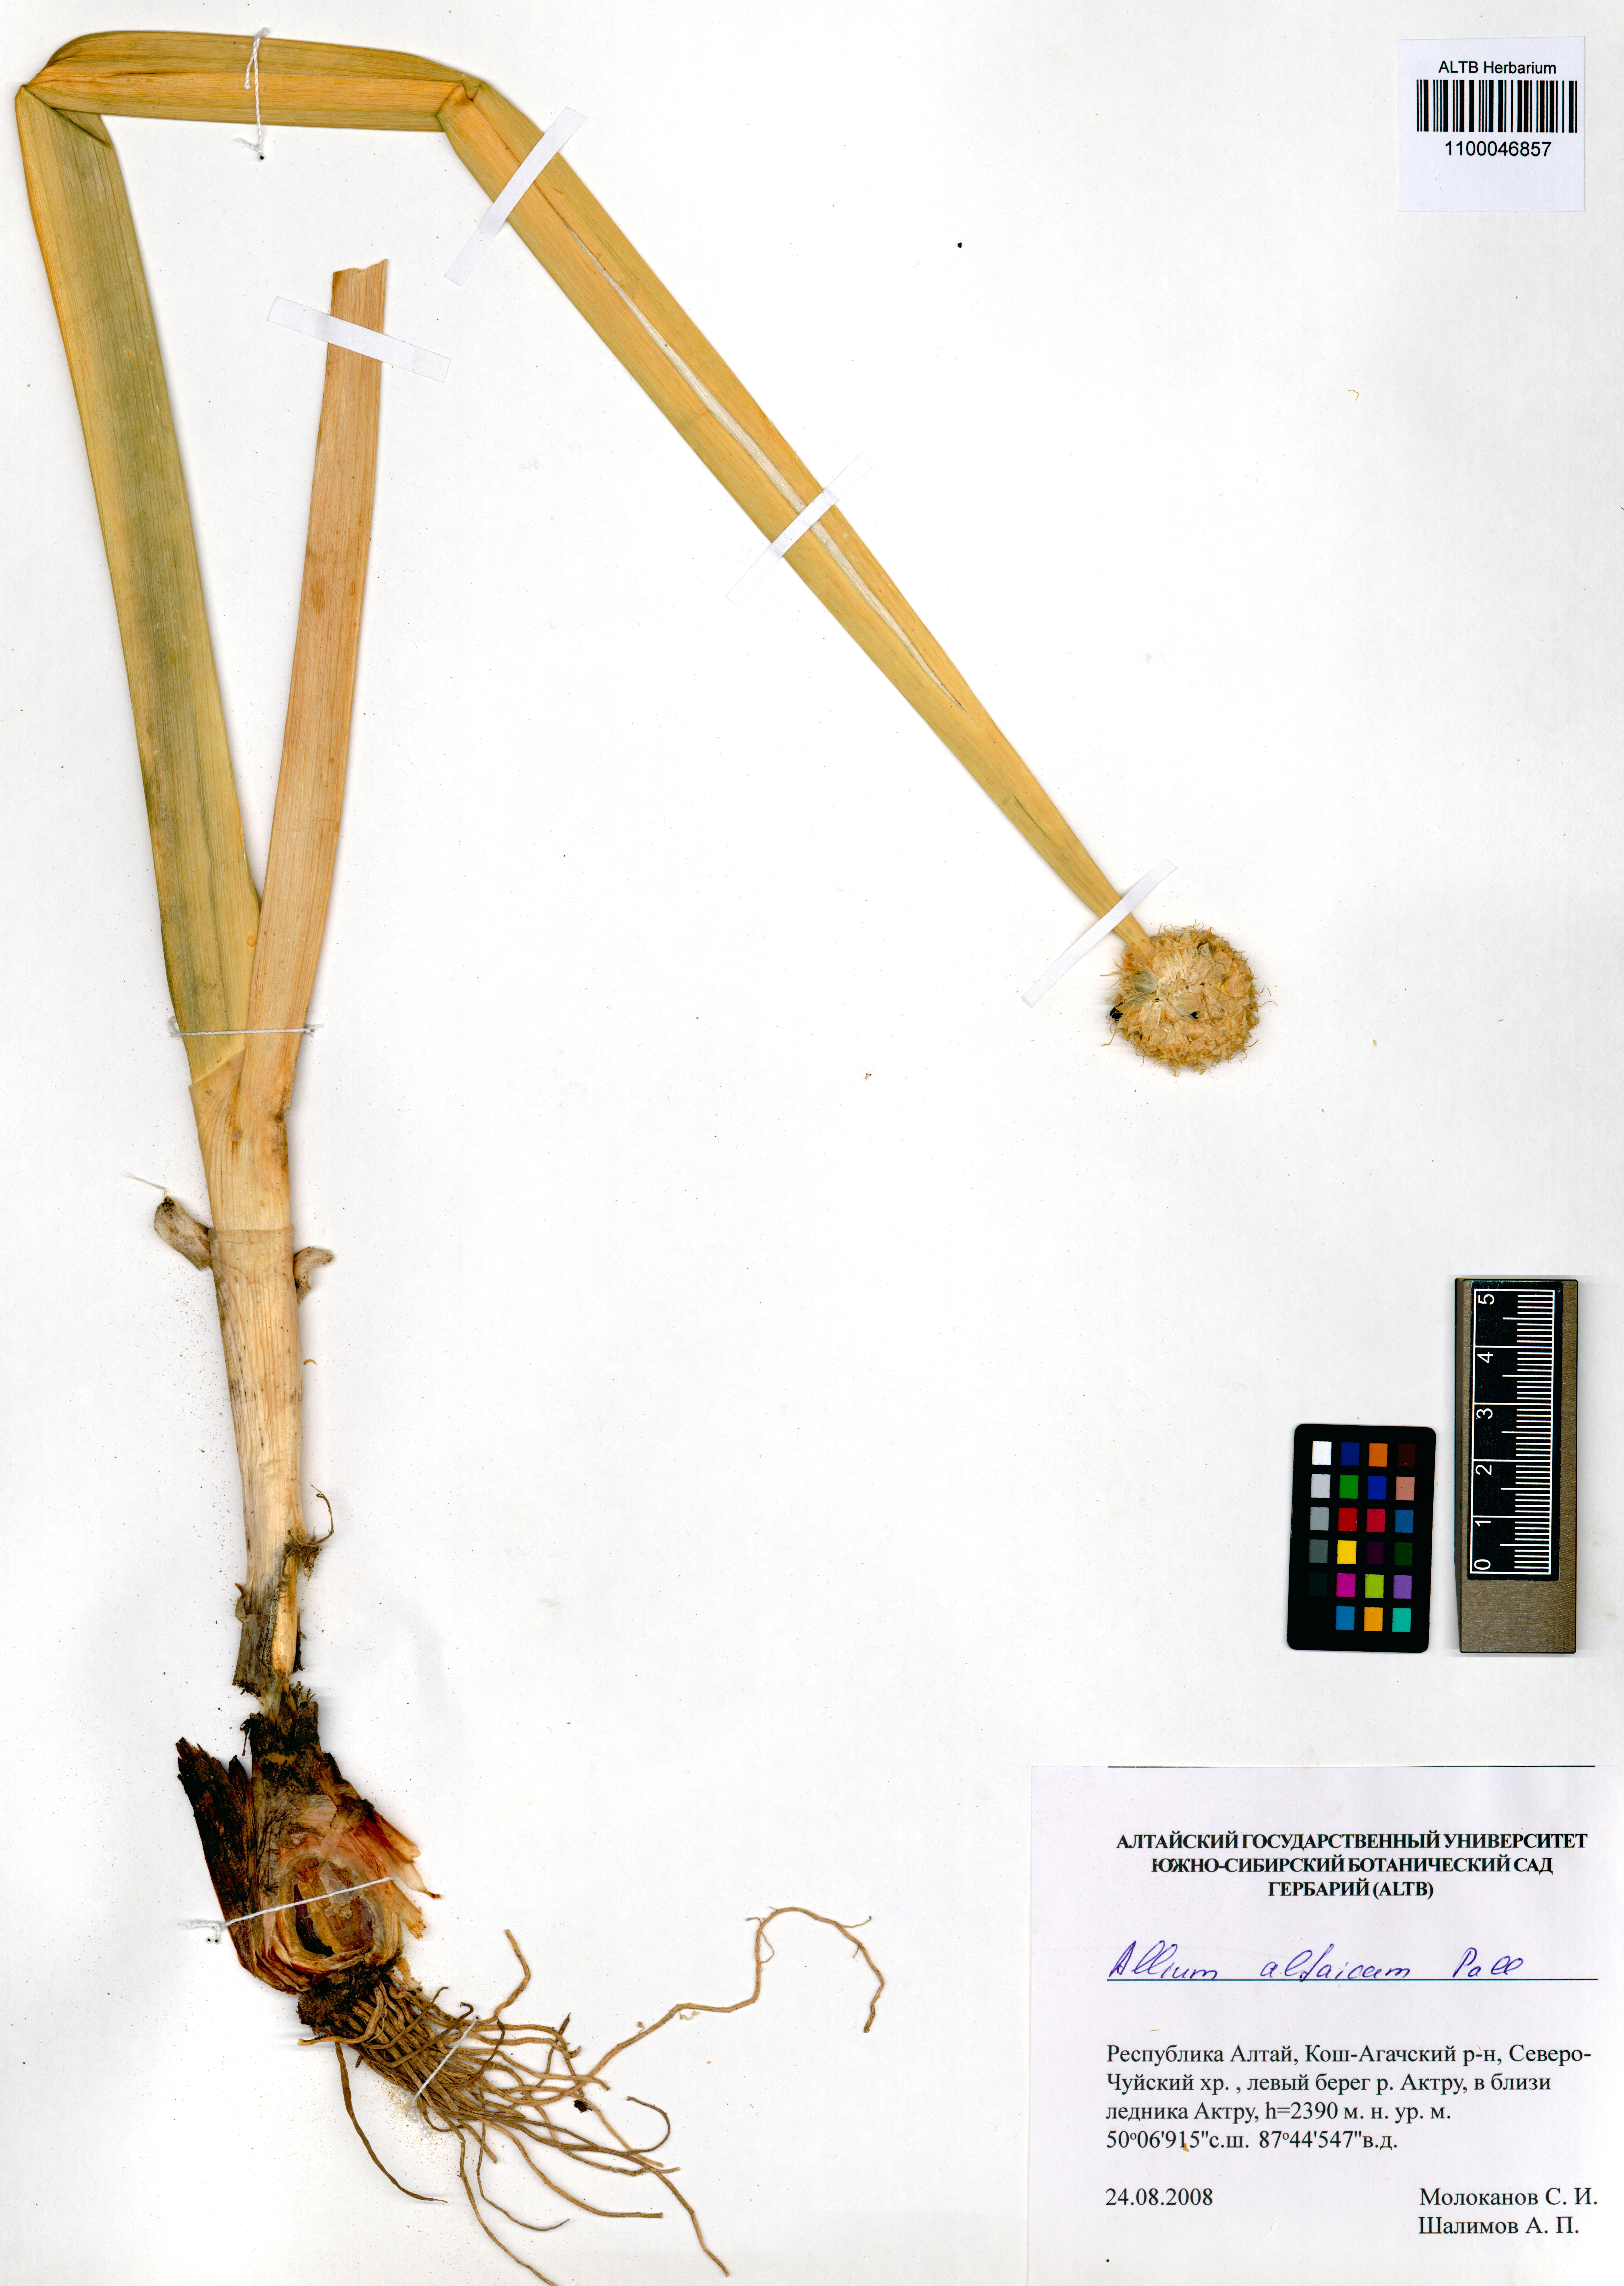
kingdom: Plantae
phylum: Tracheophyta
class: Liliopsida
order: Asparagales
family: Amaryllidaceae
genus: Allium
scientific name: Allium altaicum
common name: Altai onion
